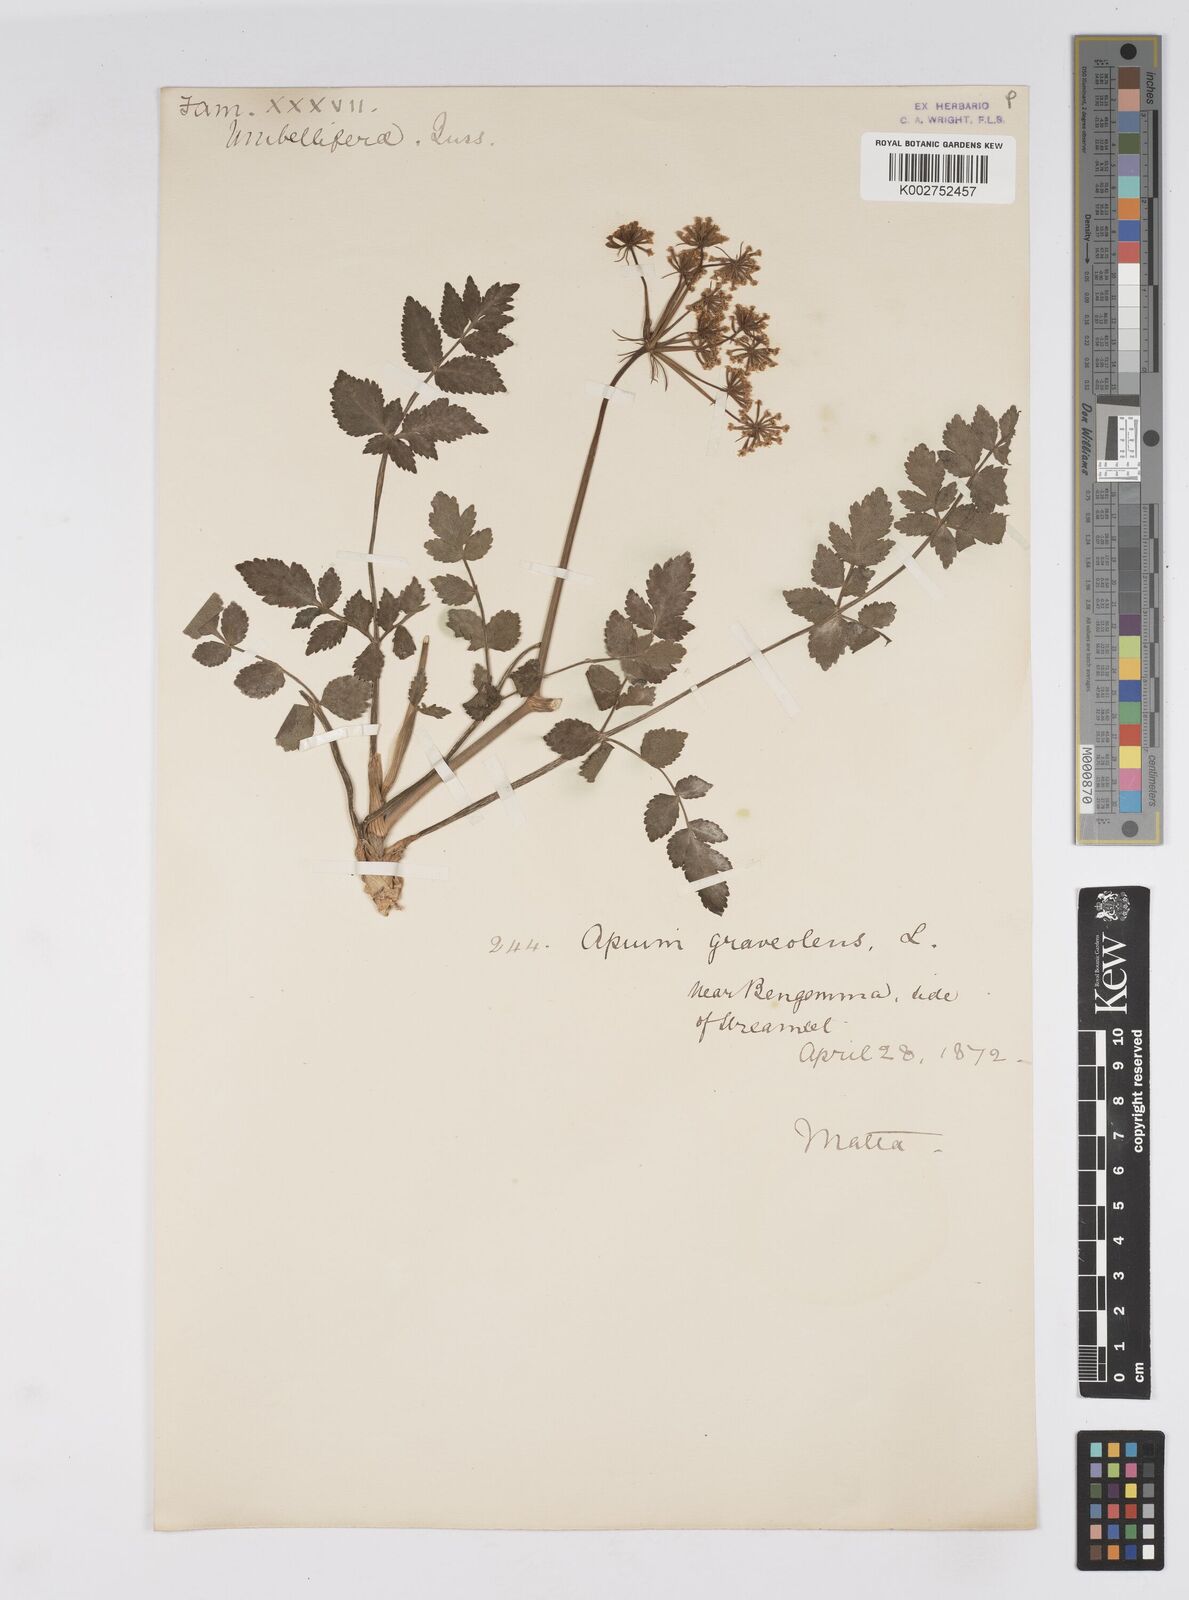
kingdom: Plantae
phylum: Tracheophyta
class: Magnoliopsida
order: Apiales
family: Apiaceae
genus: Apium
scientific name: Apium graveolens
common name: Wild celery
